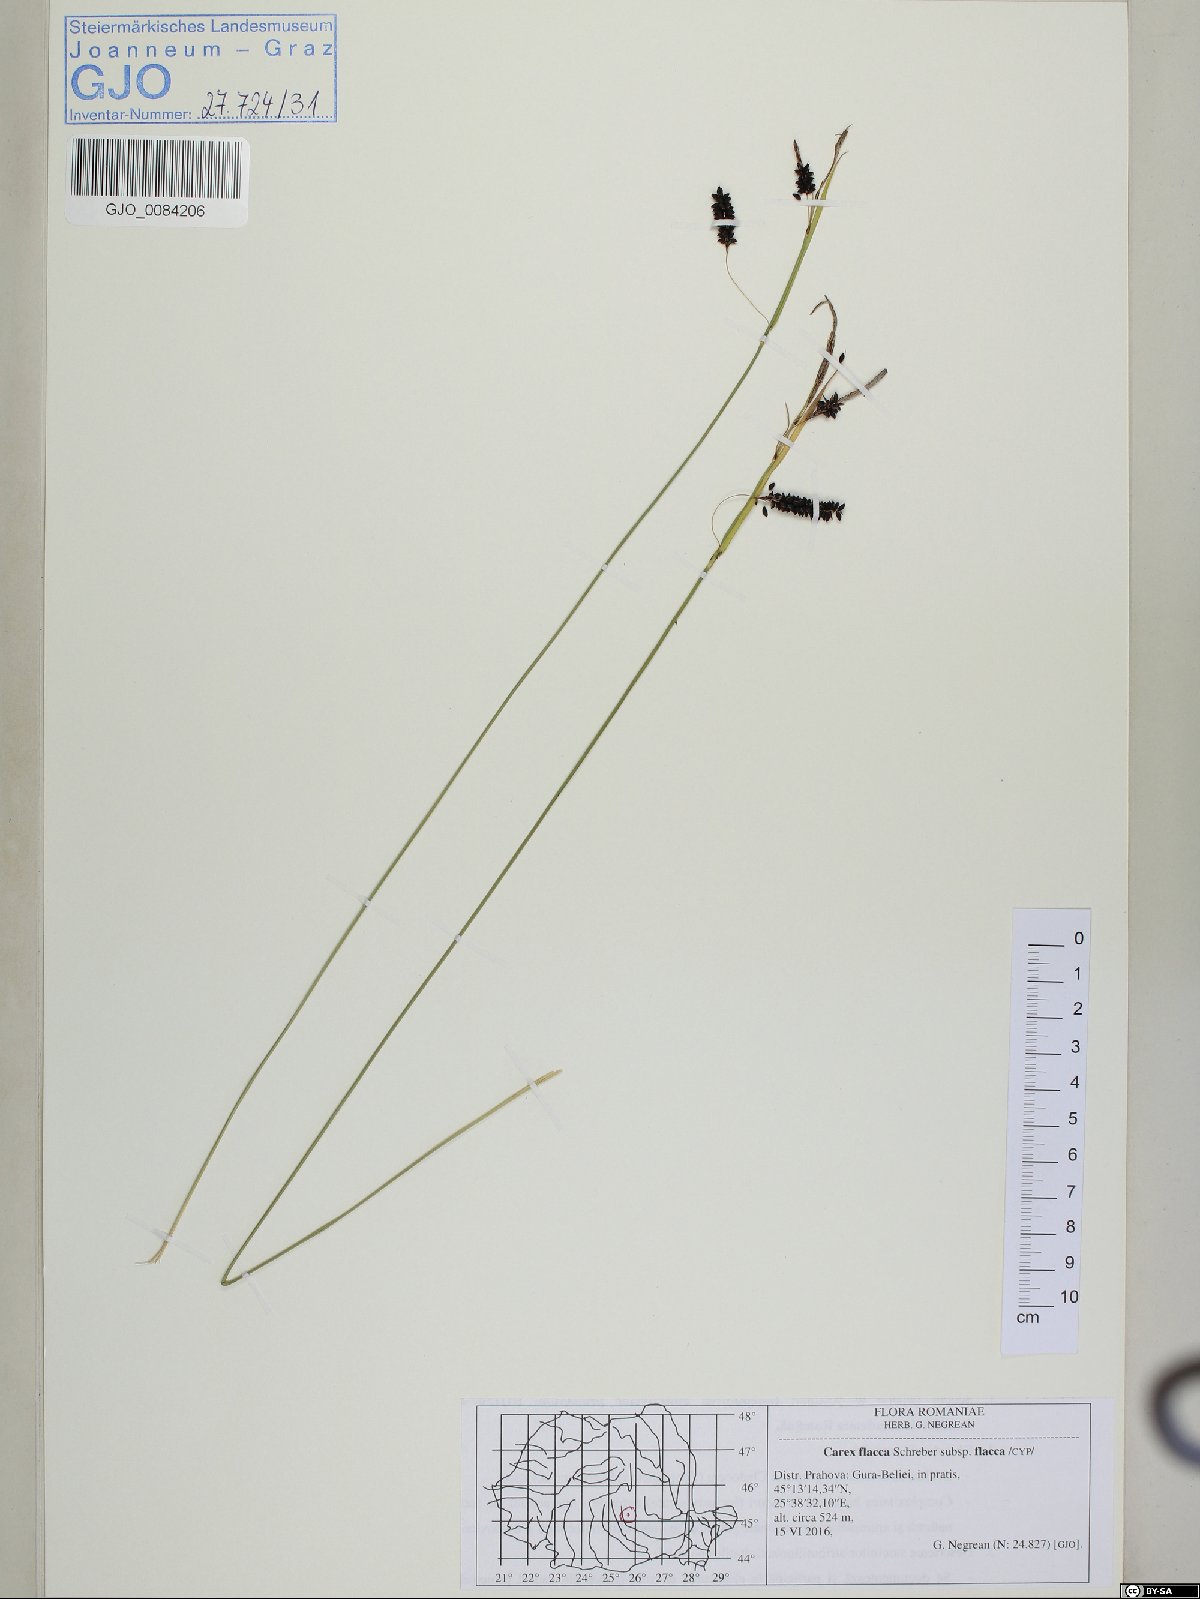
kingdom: Plantae
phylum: Tracheophyta
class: Liliopsida
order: Poales
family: Cyperaceae
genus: Carex
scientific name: Carex flacca
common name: Glaucous sedge
